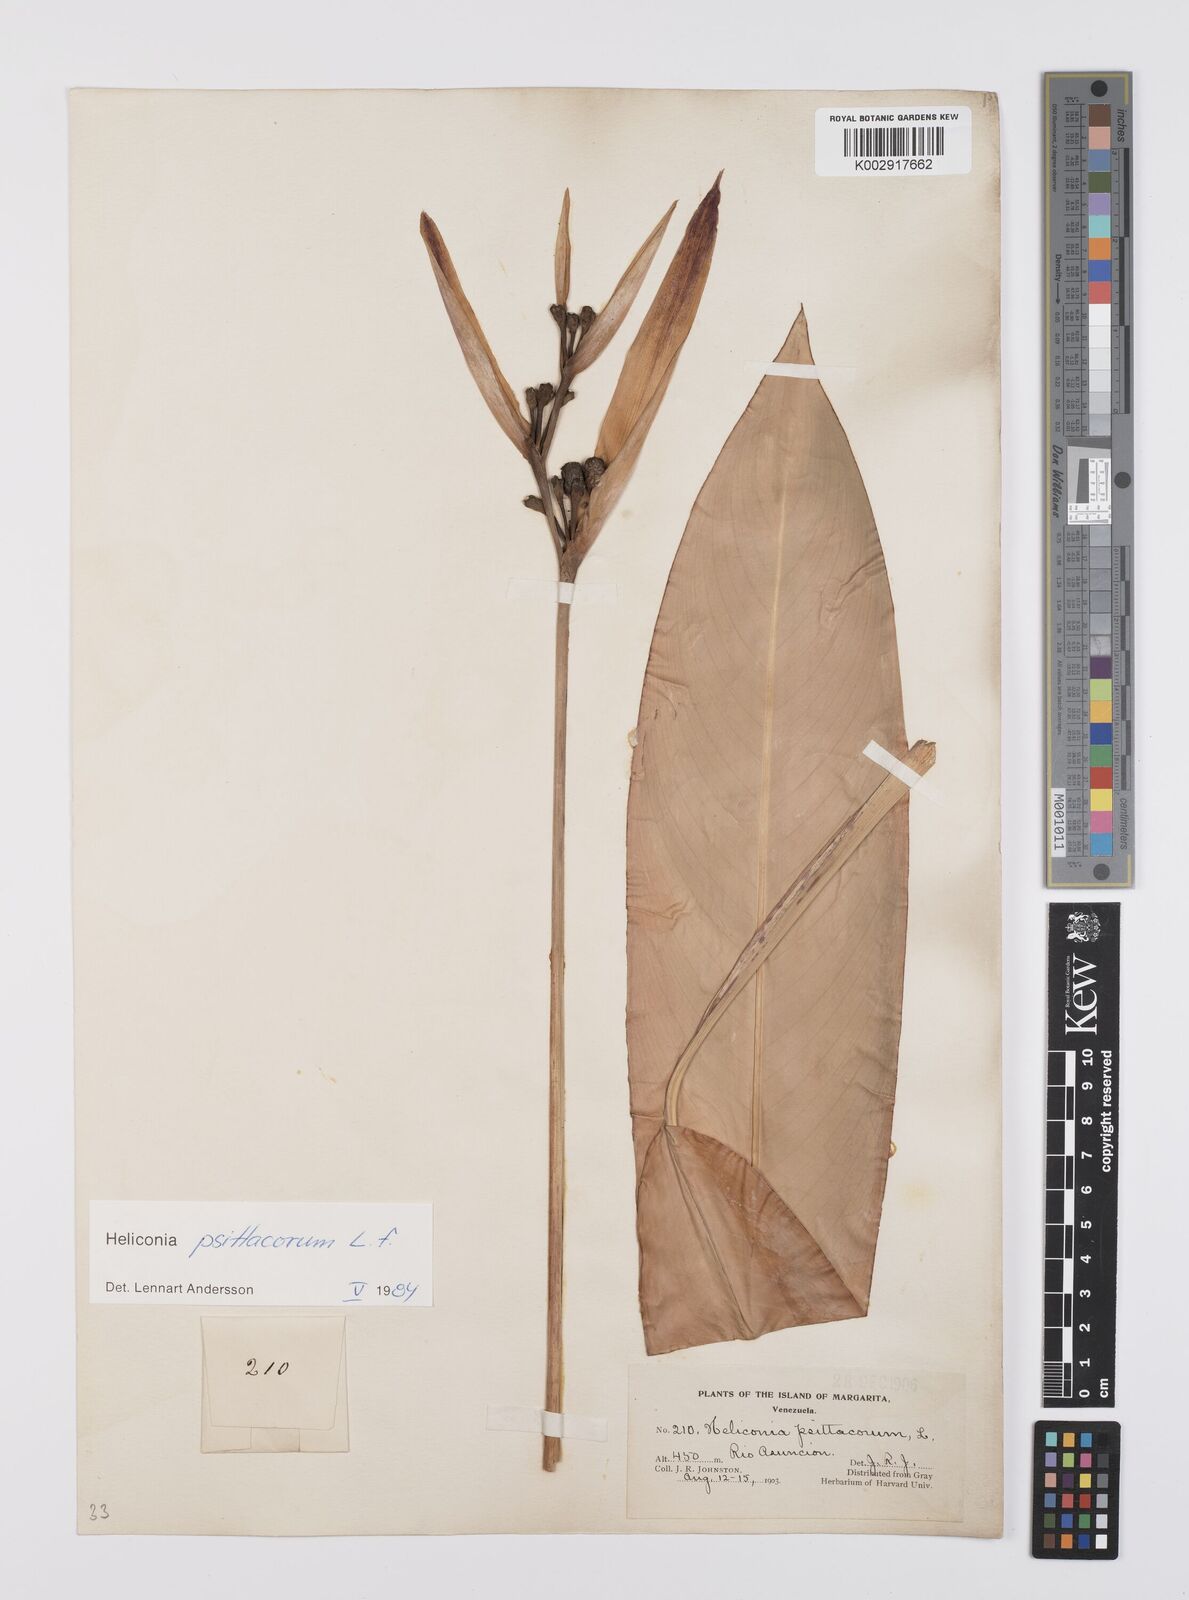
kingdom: Plantae
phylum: Tracheophyta
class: Liliopsida
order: Zingiberales
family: Heliconiaceae
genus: Heliconia
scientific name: Heliconia psittacorum
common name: Parrot's-flower
